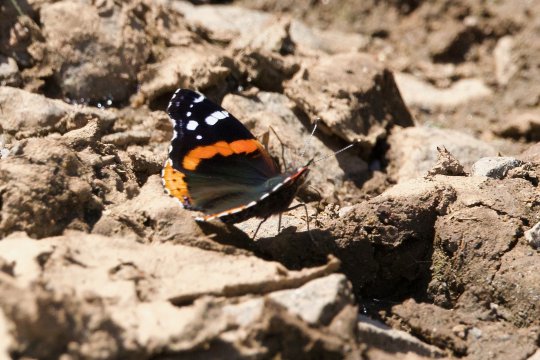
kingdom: Animalia
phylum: Arthropoda
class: Insecta
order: Lepidoptera
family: Nymphalidae
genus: Vanessa
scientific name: Vanessa atalanta
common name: Red Admiral
